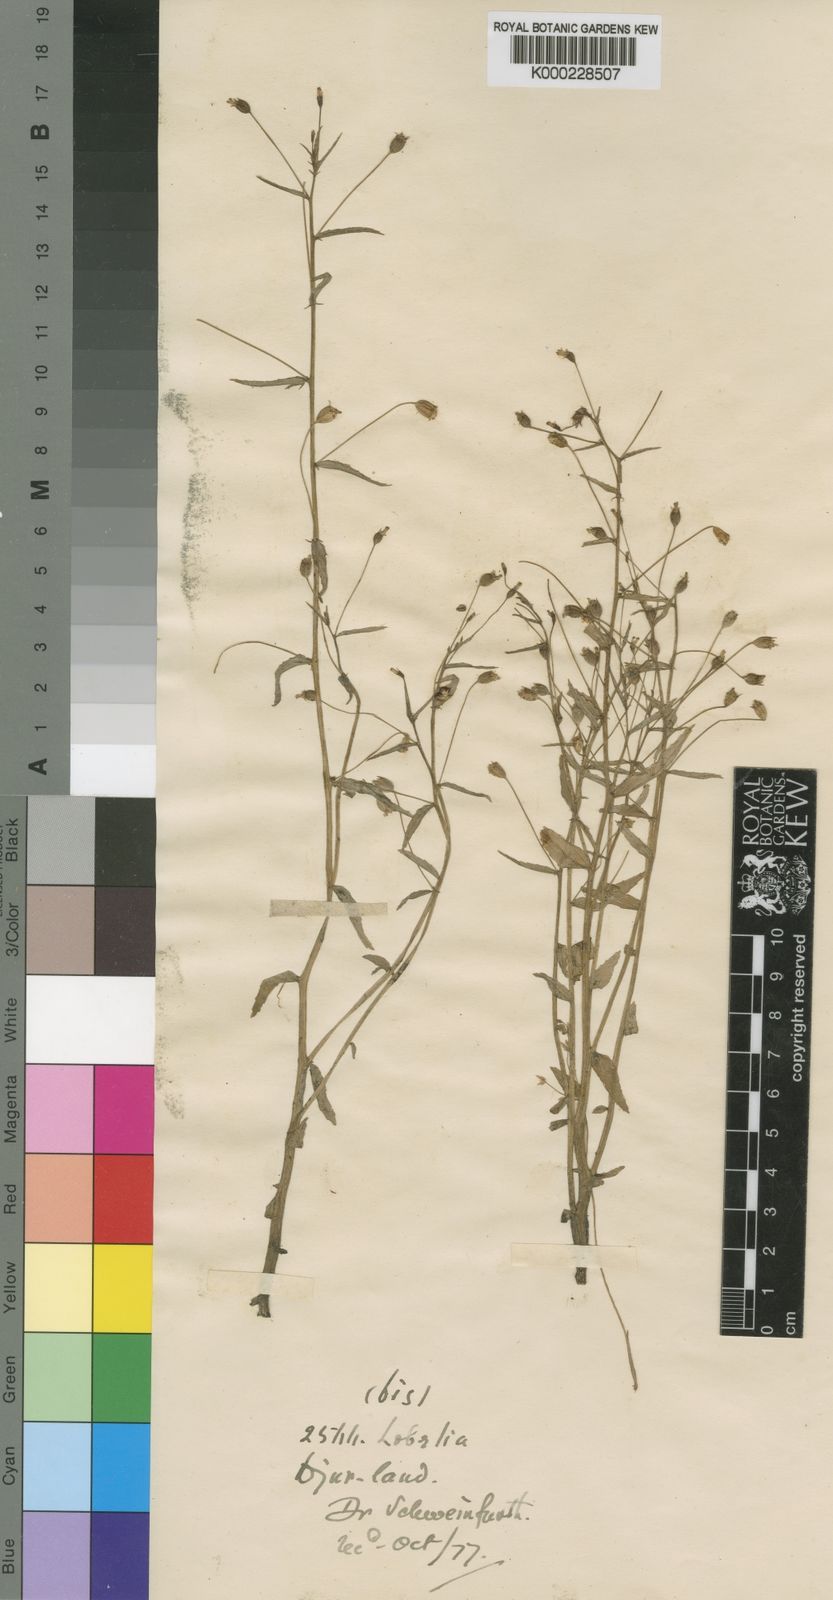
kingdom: Plantae
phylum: Tracheophyta
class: Magnoliopsida
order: Asterales
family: Campanulaceae
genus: Lobelia
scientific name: Lobelia
